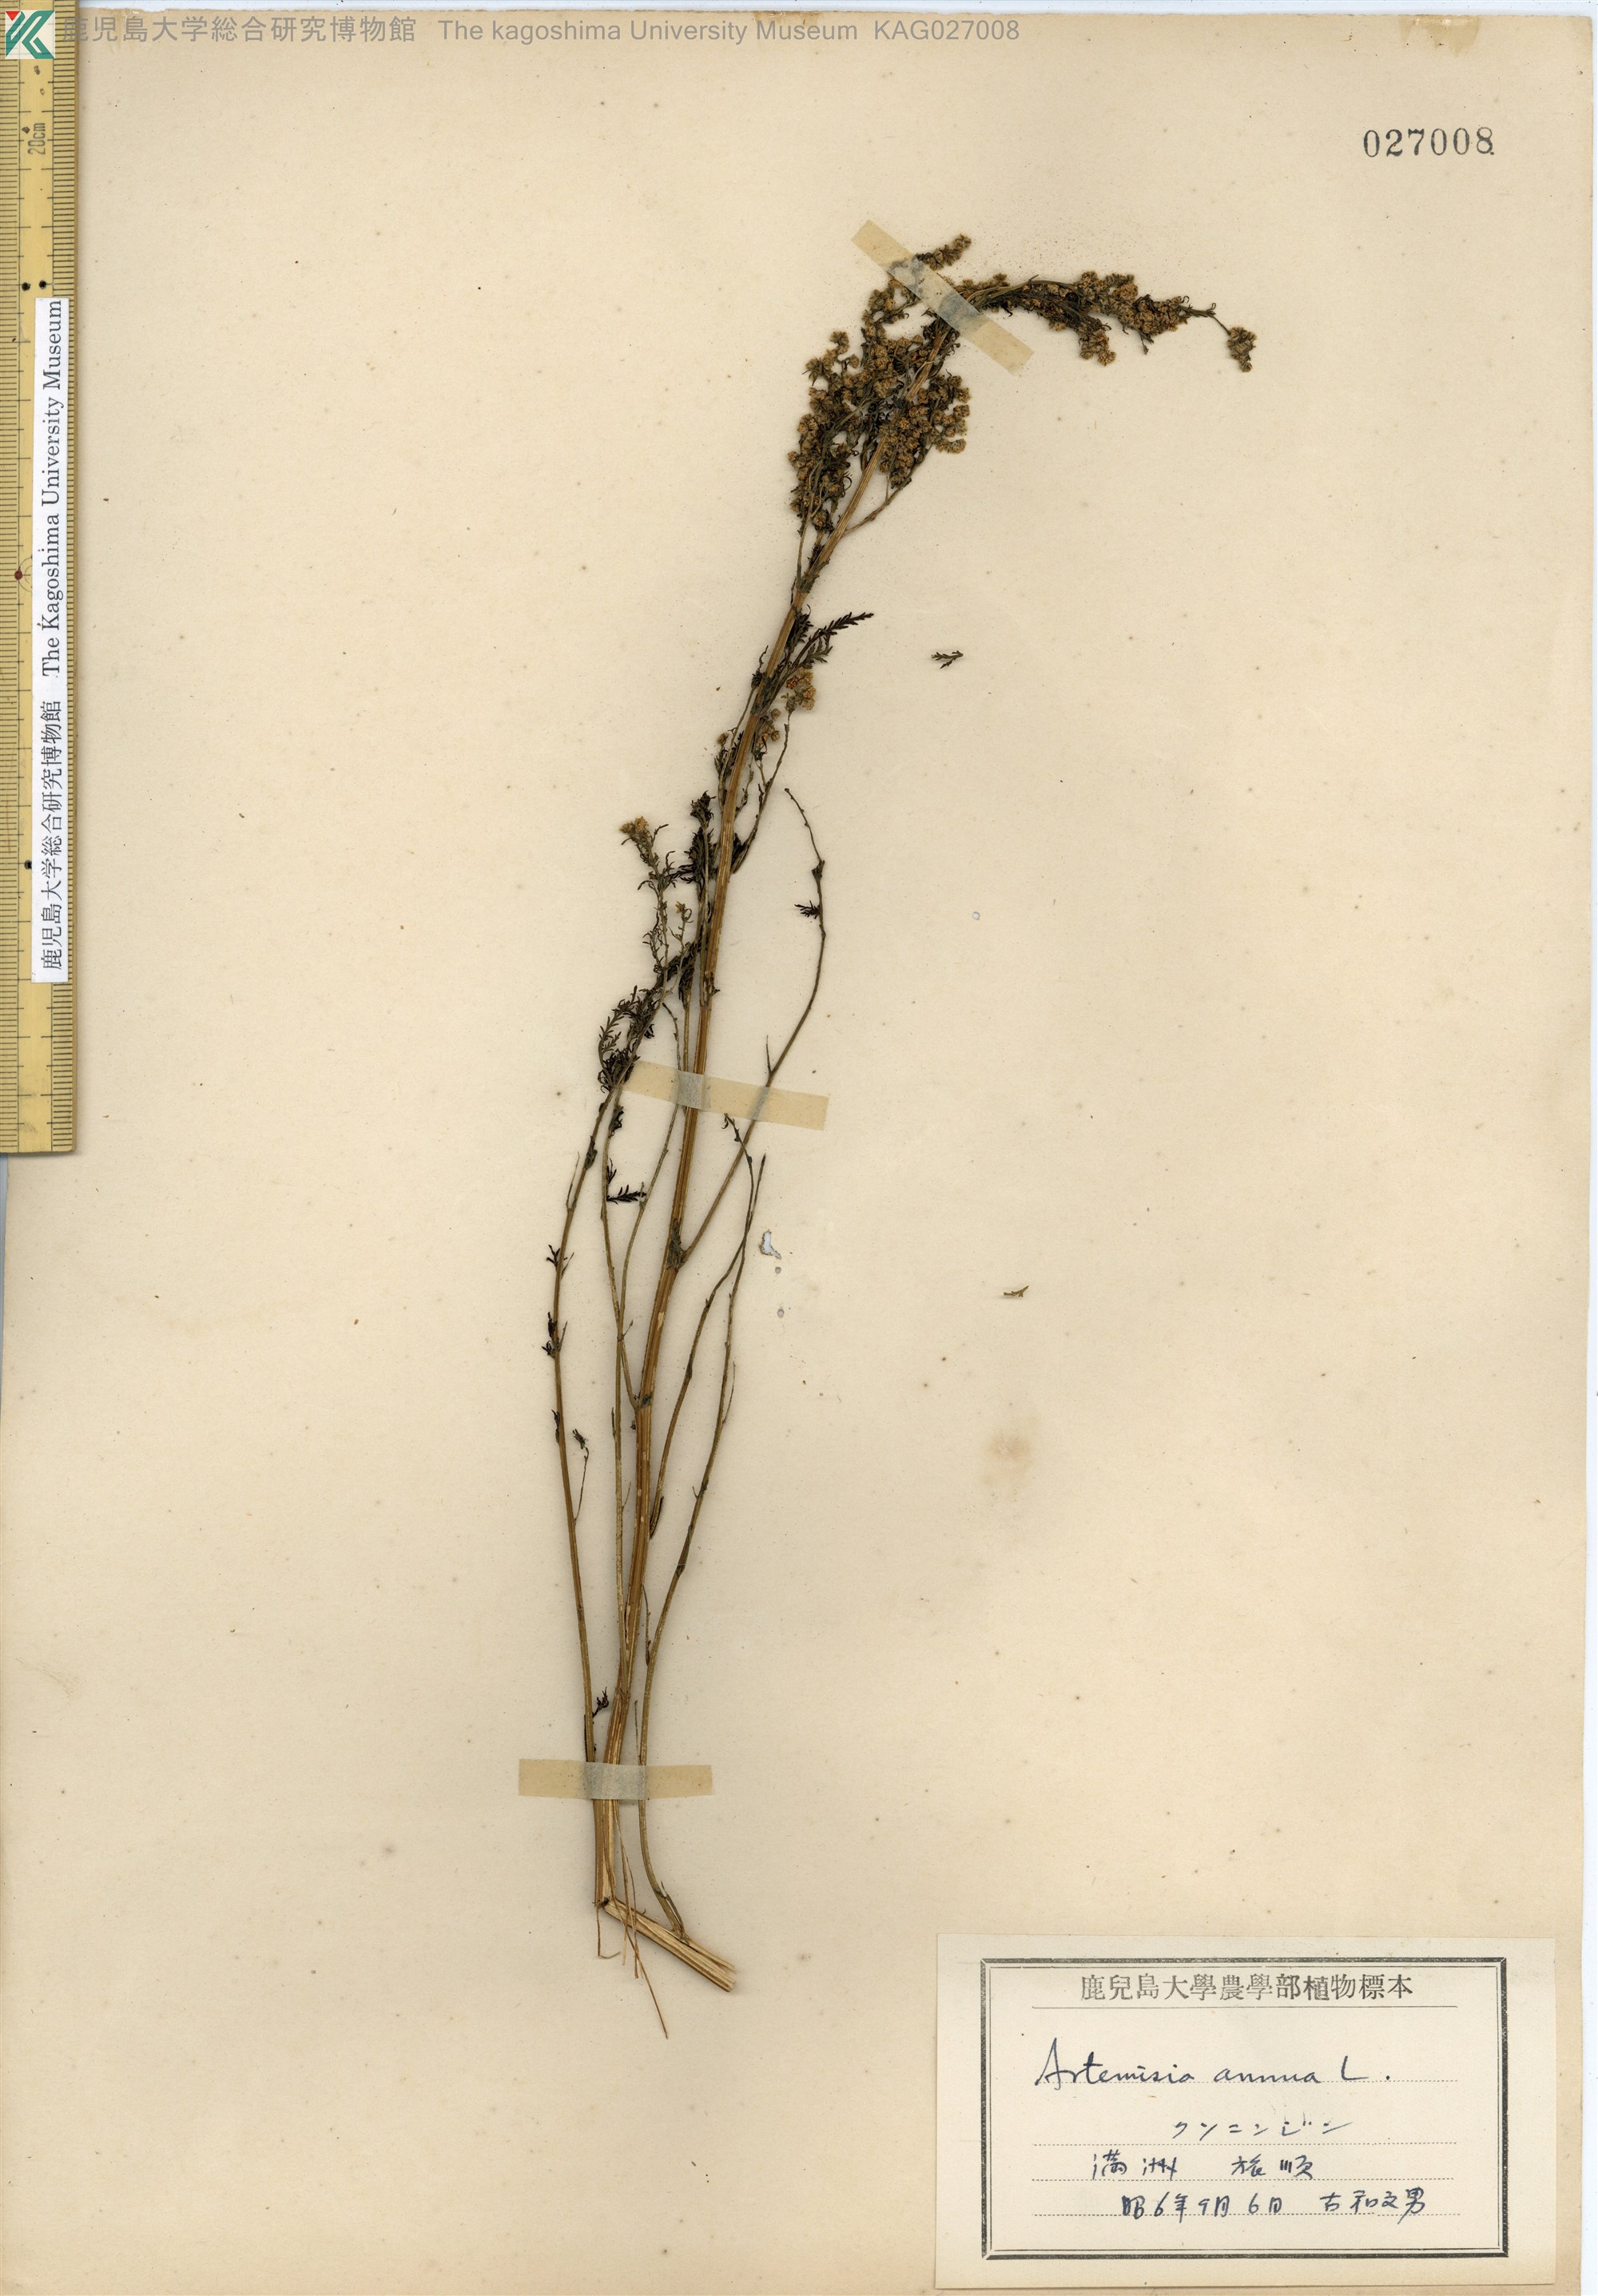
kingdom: Plantae
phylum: Tracheophyta
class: Magnoliopsida
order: Asterales
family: Asteraceae
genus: Artemisia
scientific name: Artemisia annua
